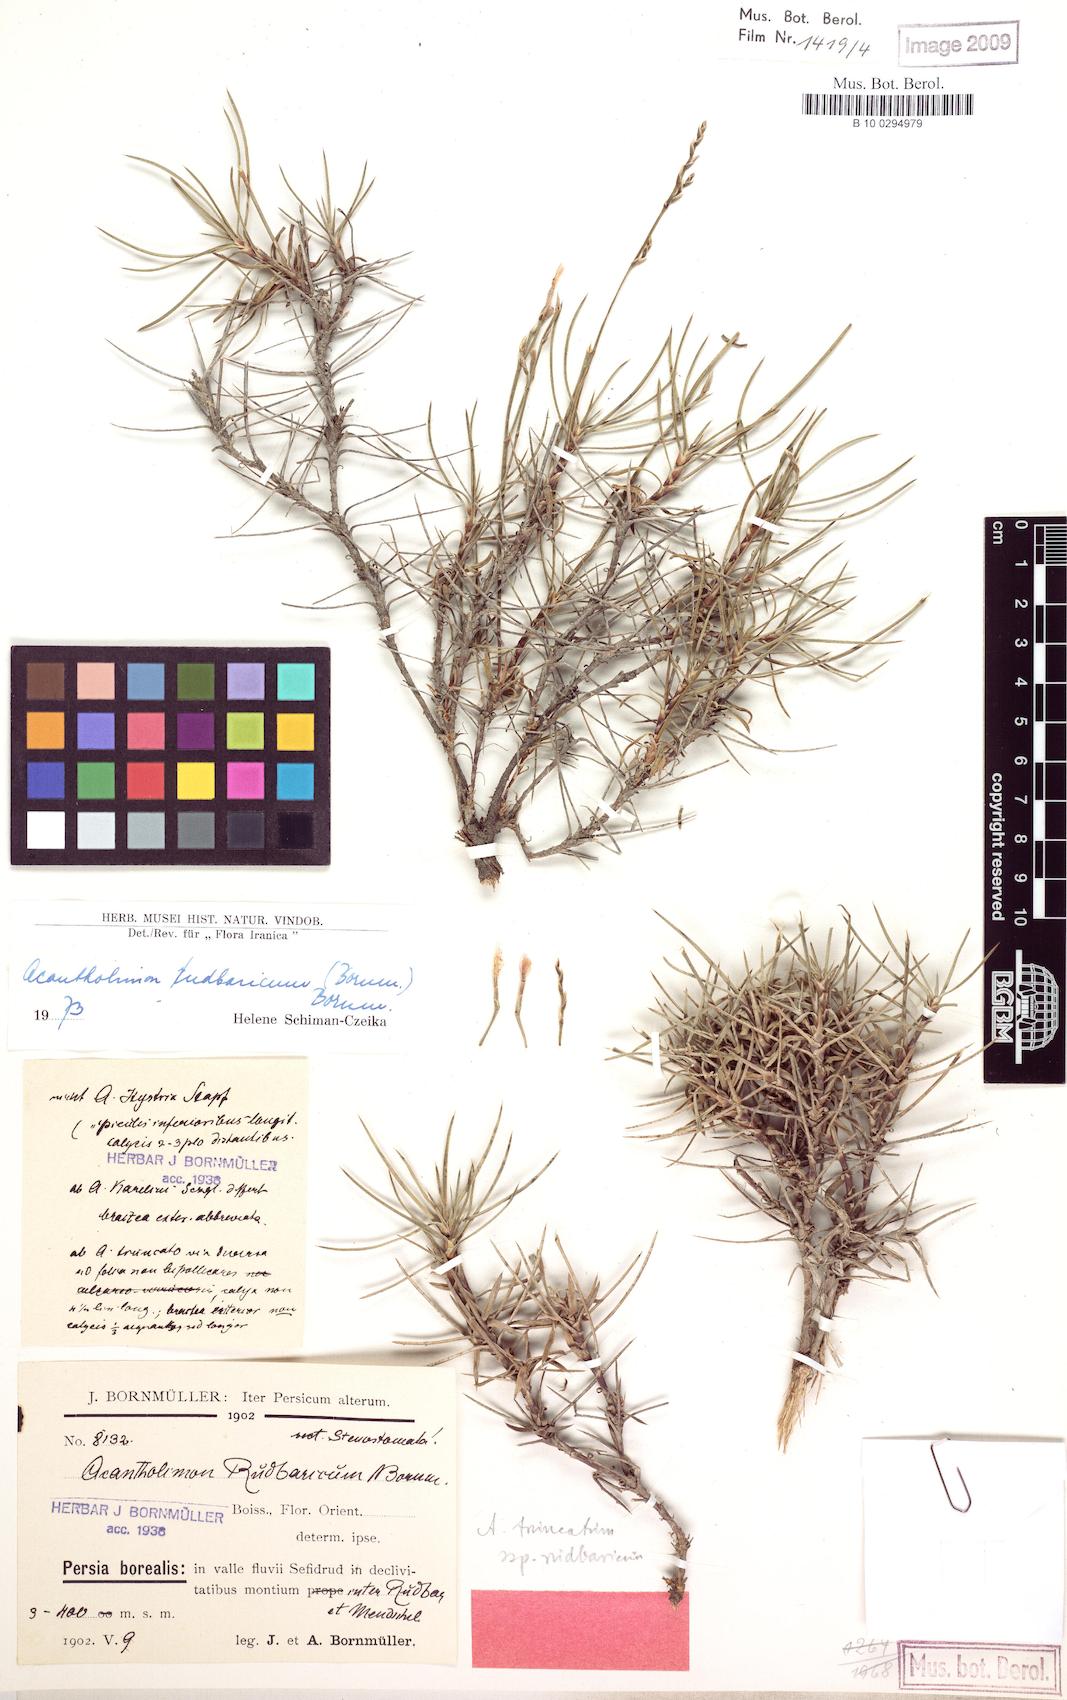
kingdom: Plantae
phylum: Tracheophyta
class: Magnoliopsida
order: Caryophyllales
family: Plumbaginaceae
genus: Acantholimon
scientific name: Acantholimon rudbaricum
